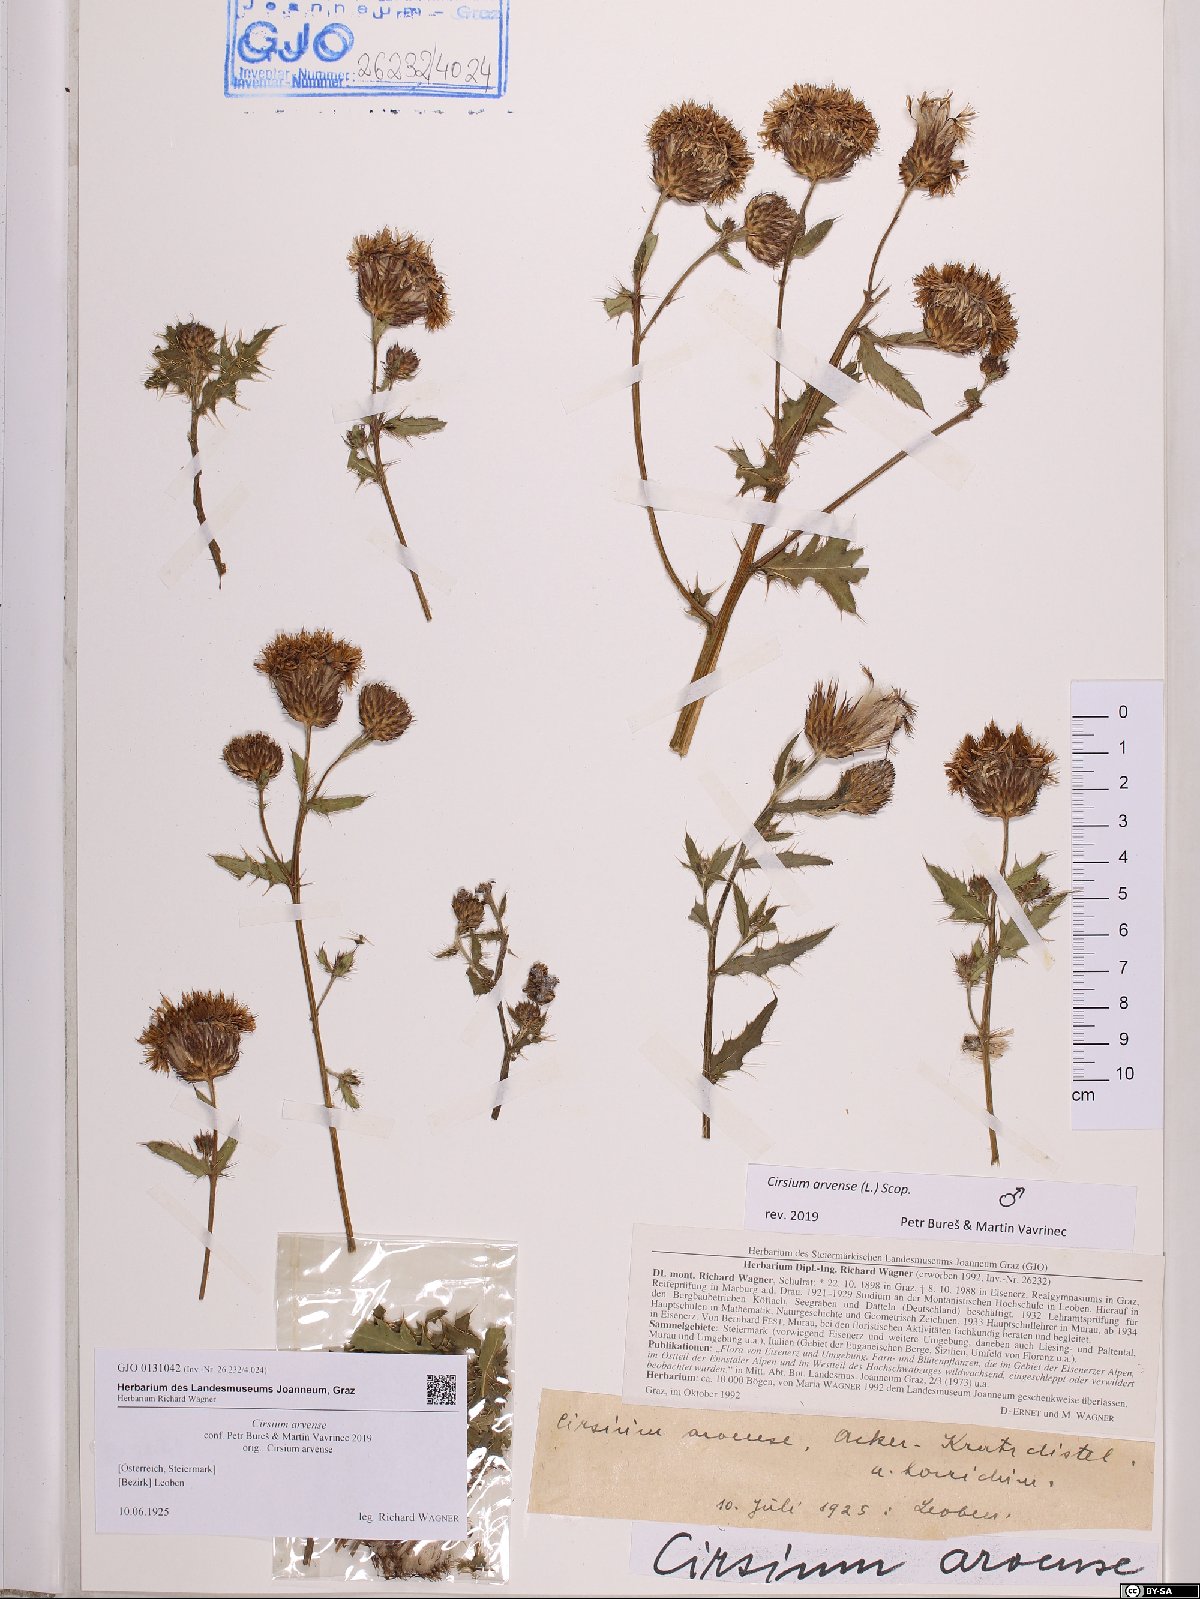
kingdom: Plantae
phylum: Tracheophyta
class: Magnoliopsida
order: Asterales
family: Asteraceae
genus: Cirsium
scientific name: Cirsium arvense
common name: Creeping thistle
